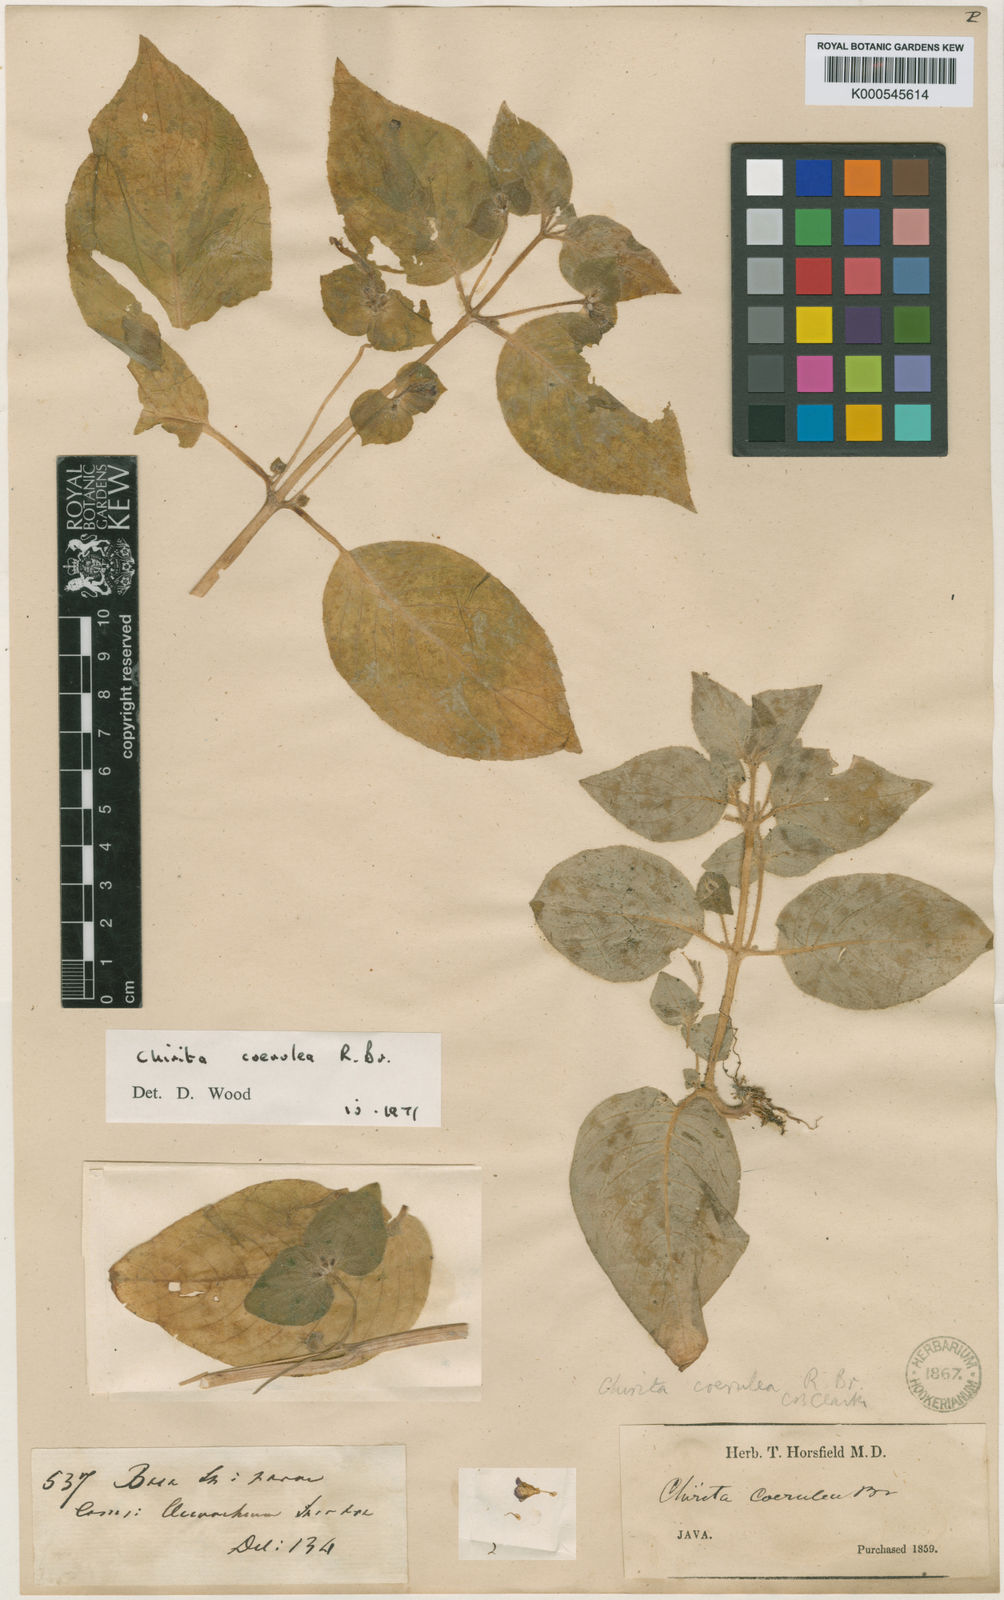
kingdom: Plantae
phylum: Tracheophyta
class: Magnoliopsida
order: Lamiales
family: Gesneriaceae
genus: Microchirita
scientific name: Microchirita caerulea
